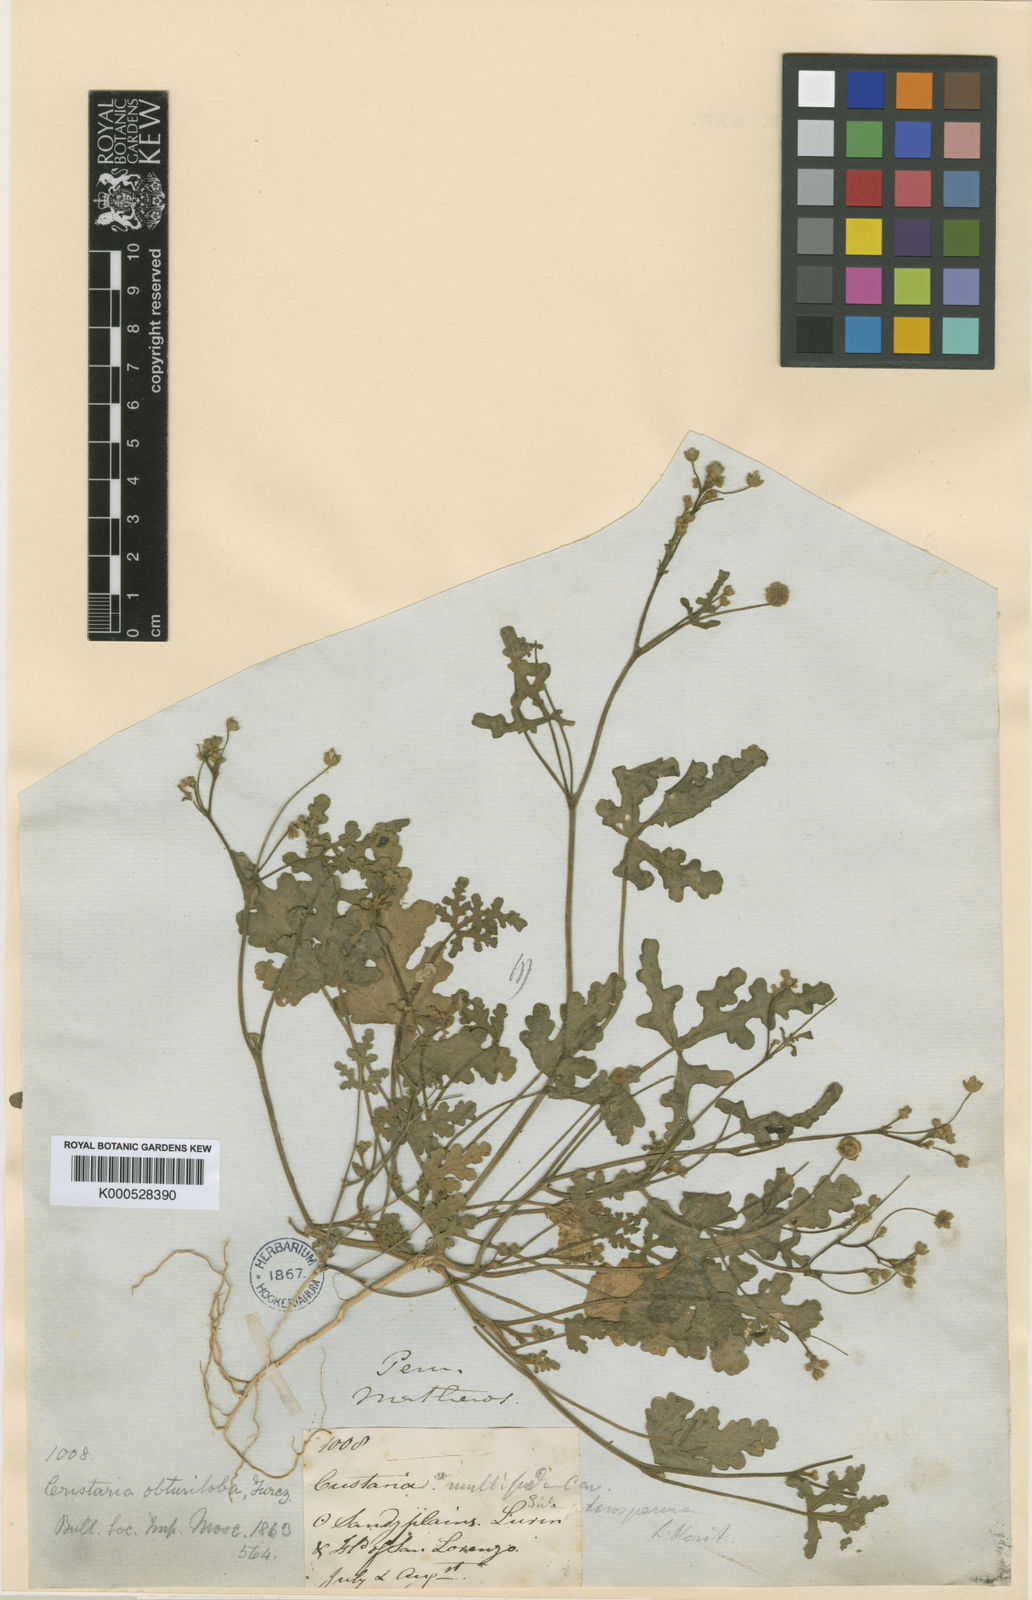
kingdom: Plantae
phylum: Tracheophyta
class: Magnoliopsida
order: Malvales
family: Malvaceae
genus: Cristaria
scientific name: Cristaria multifida
